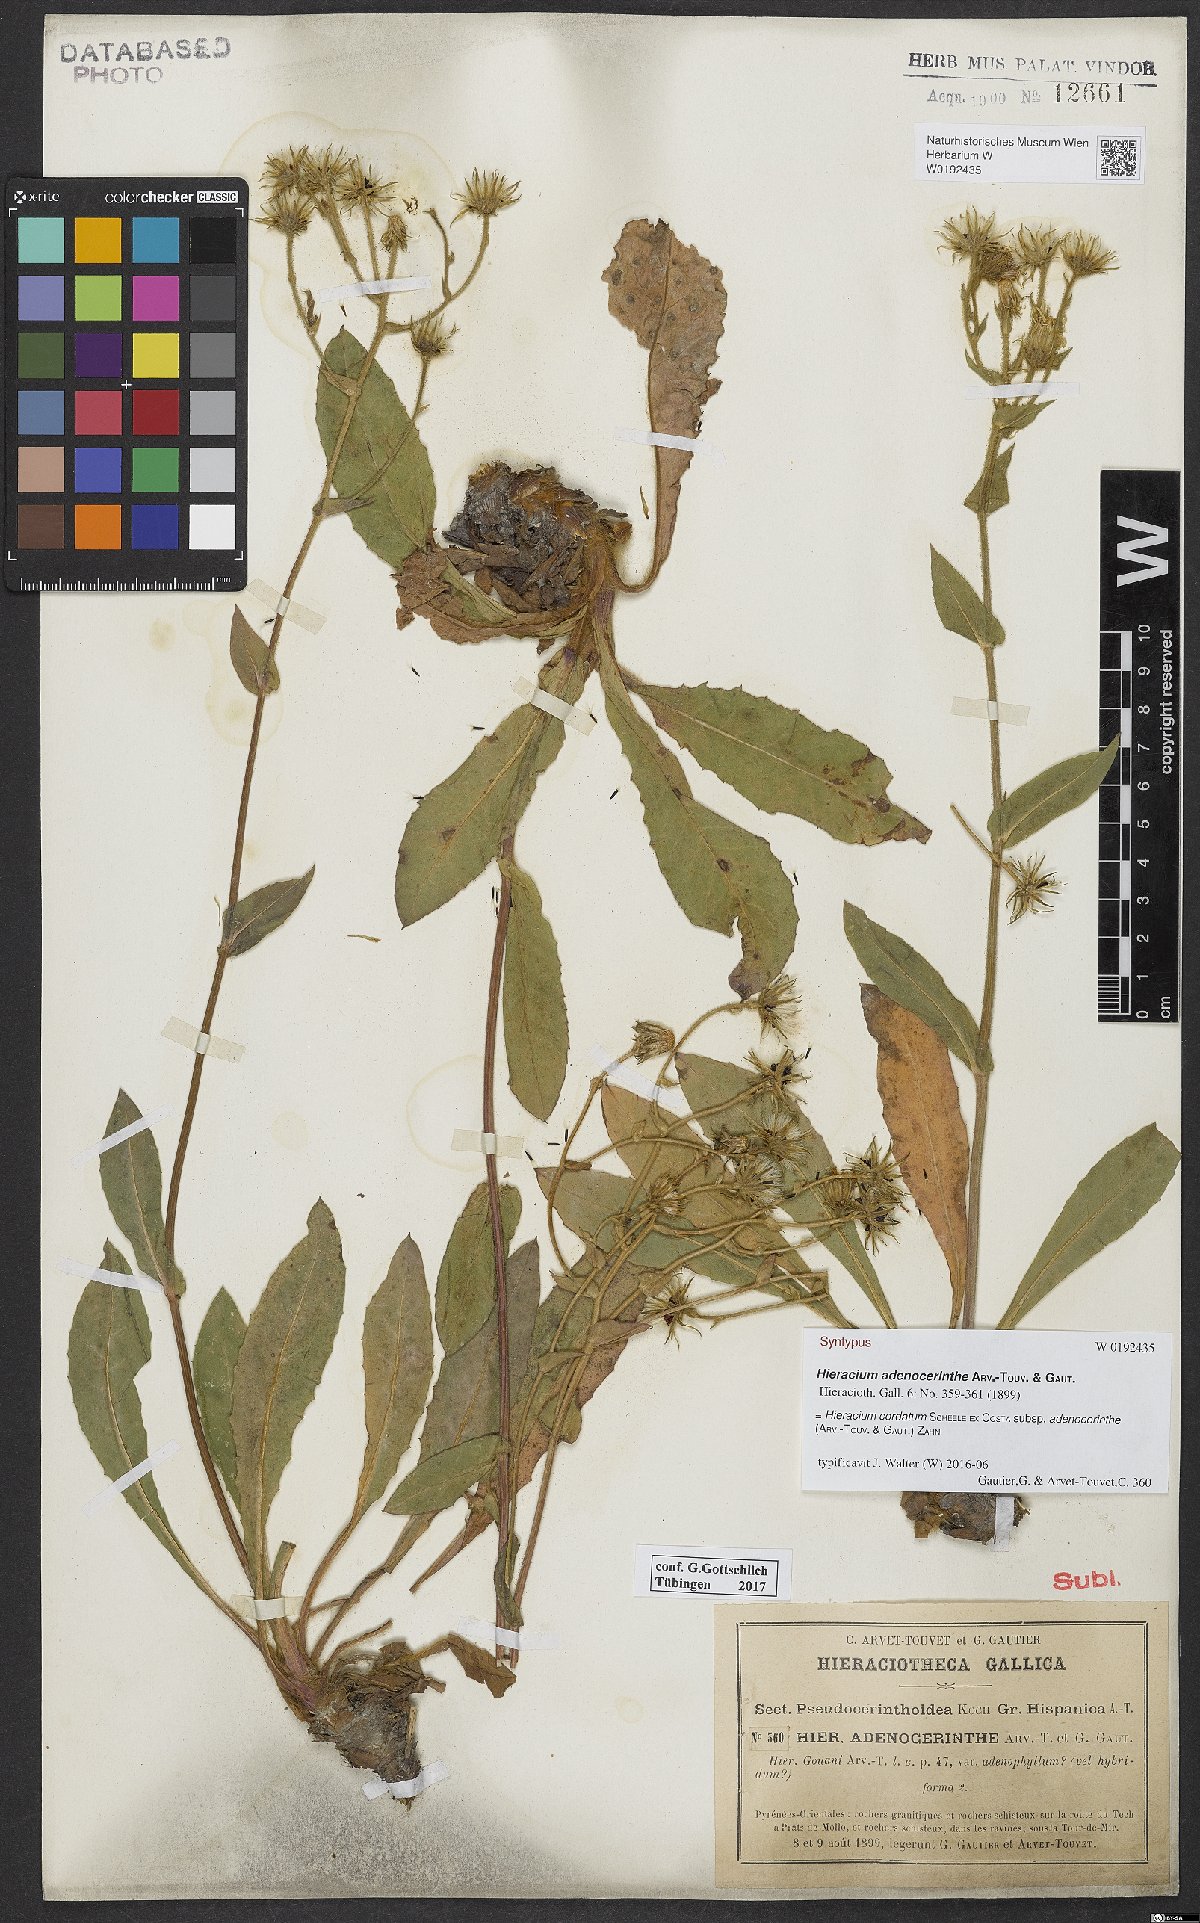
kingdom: Plantae
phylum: Tracheophyta
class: Magnoliopsida
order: Asterales
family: Asteraceae
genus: Hieracium
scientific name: Hieracium gouanii
